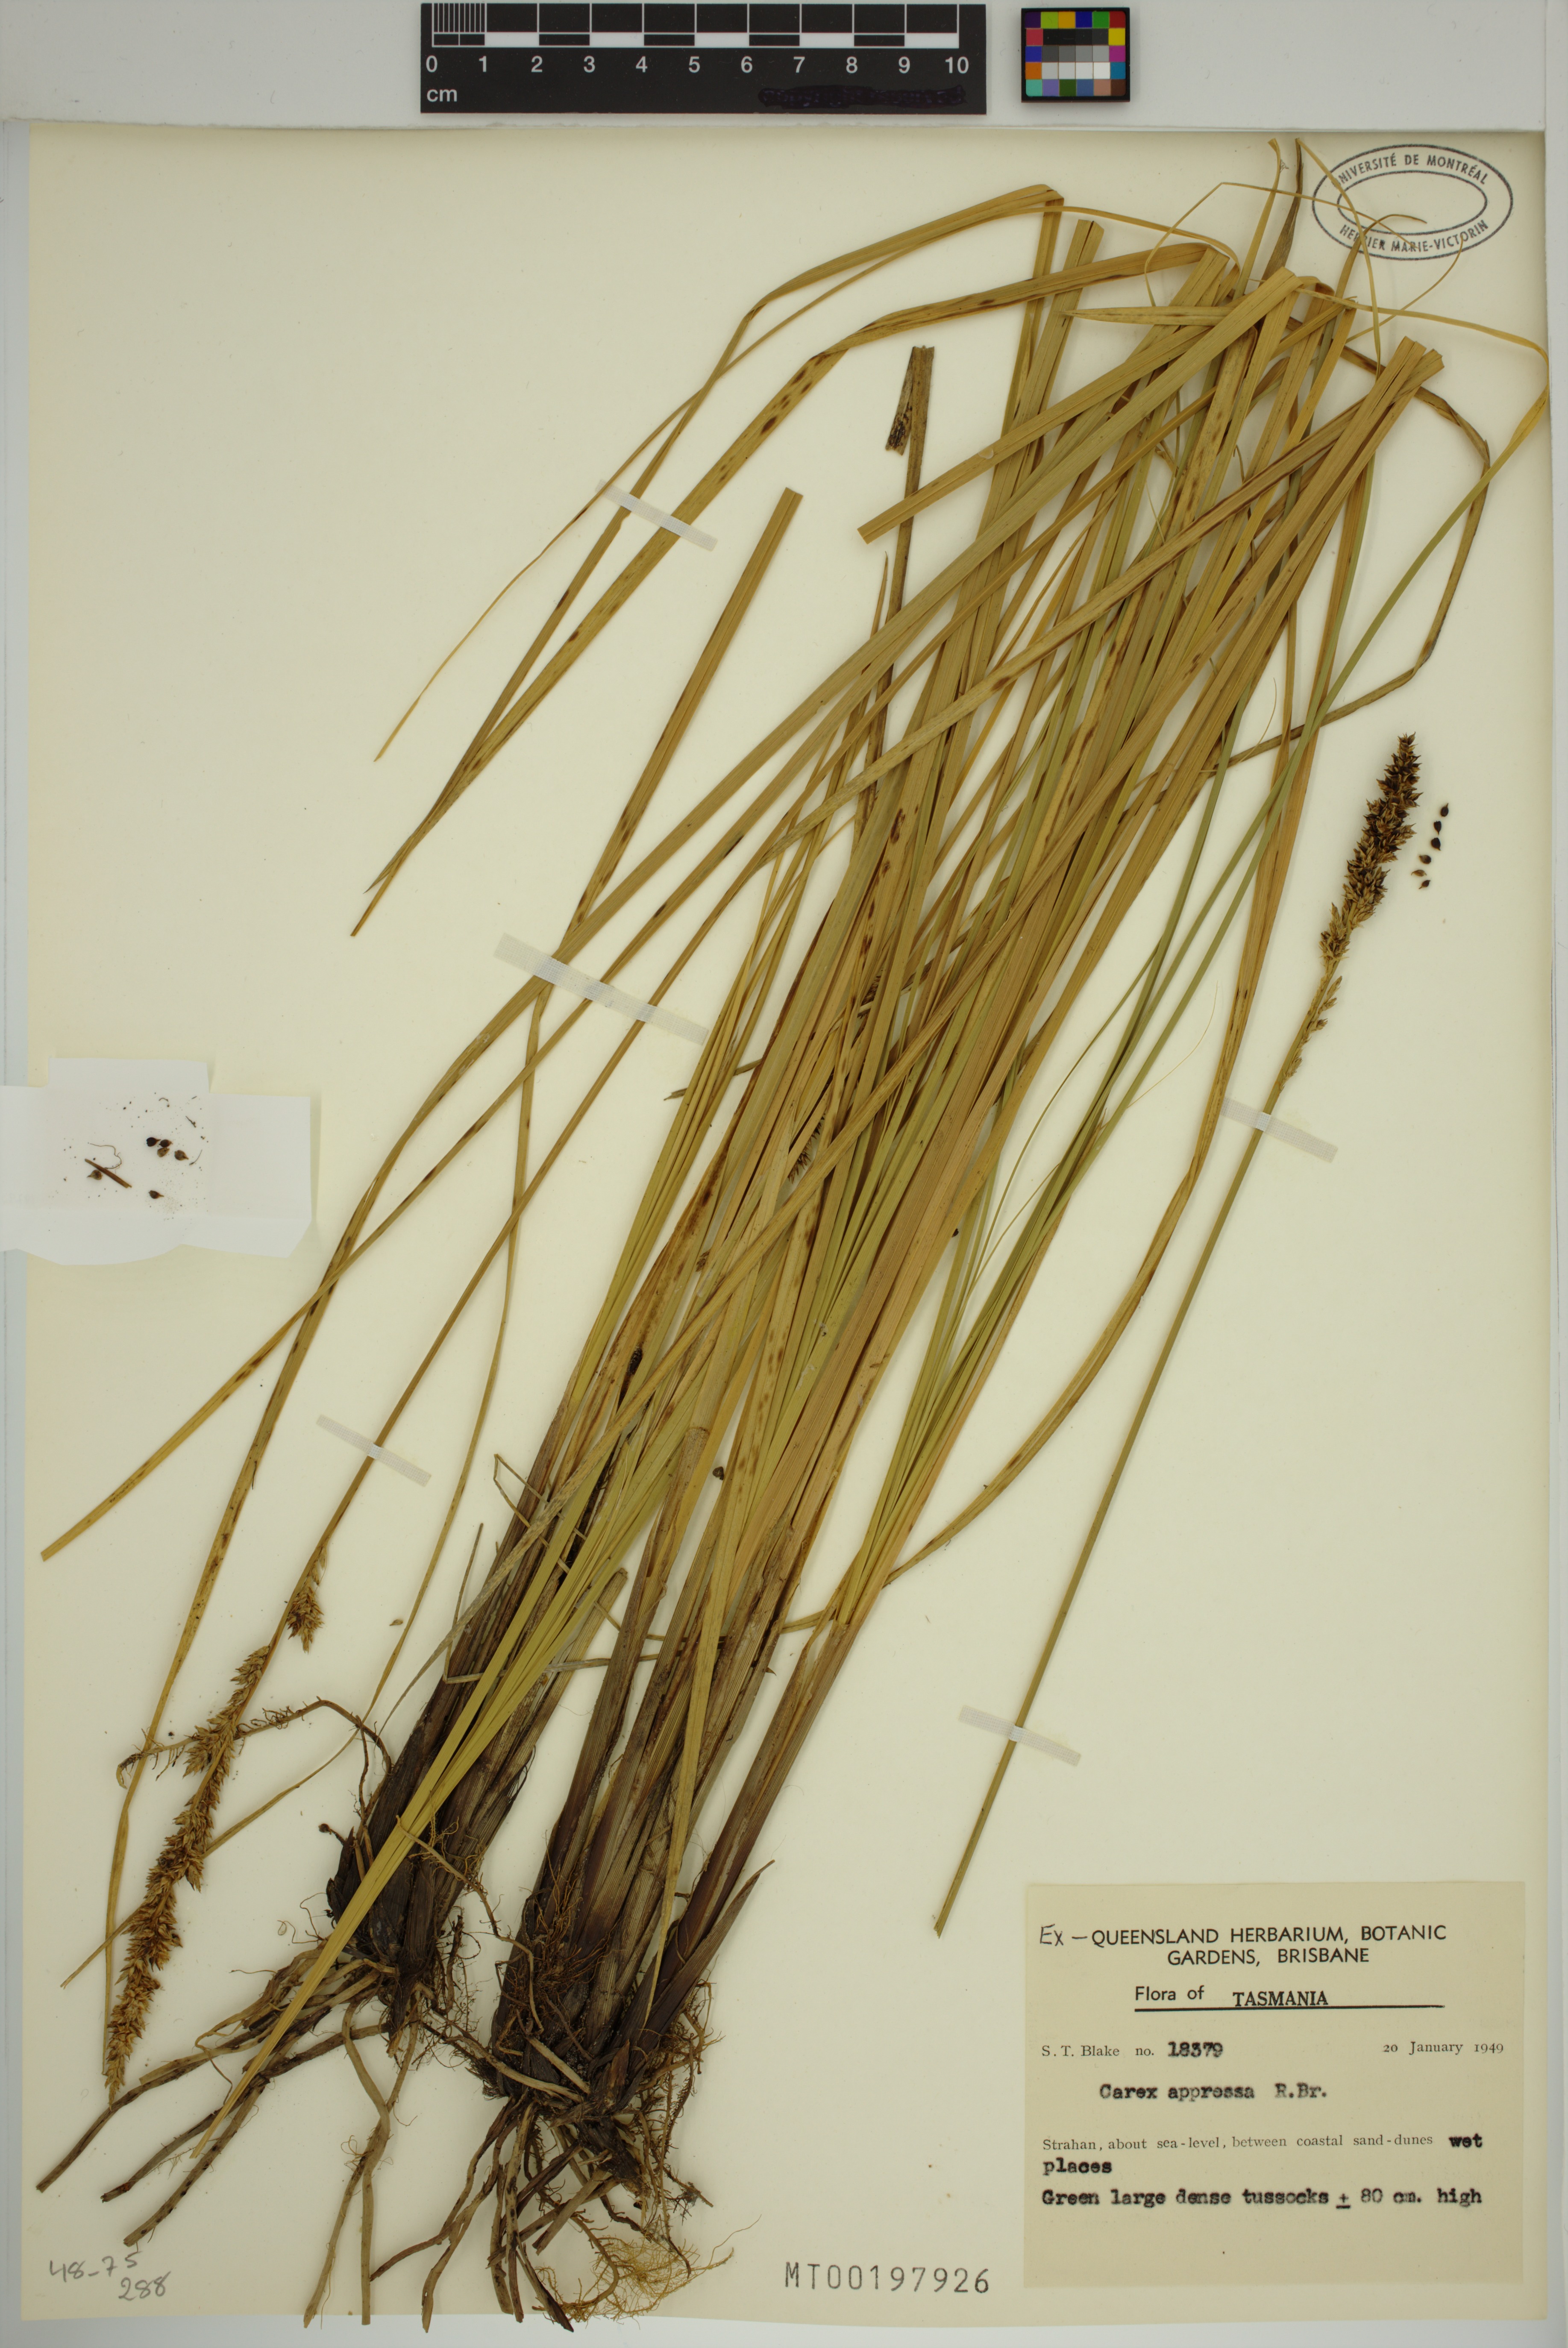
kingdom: Plantae
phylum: Tracheophyta
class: Liliopsida
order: Poales
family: Cyperaceae
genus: Carex
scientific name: Carex appressa
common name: Tussock sedge
